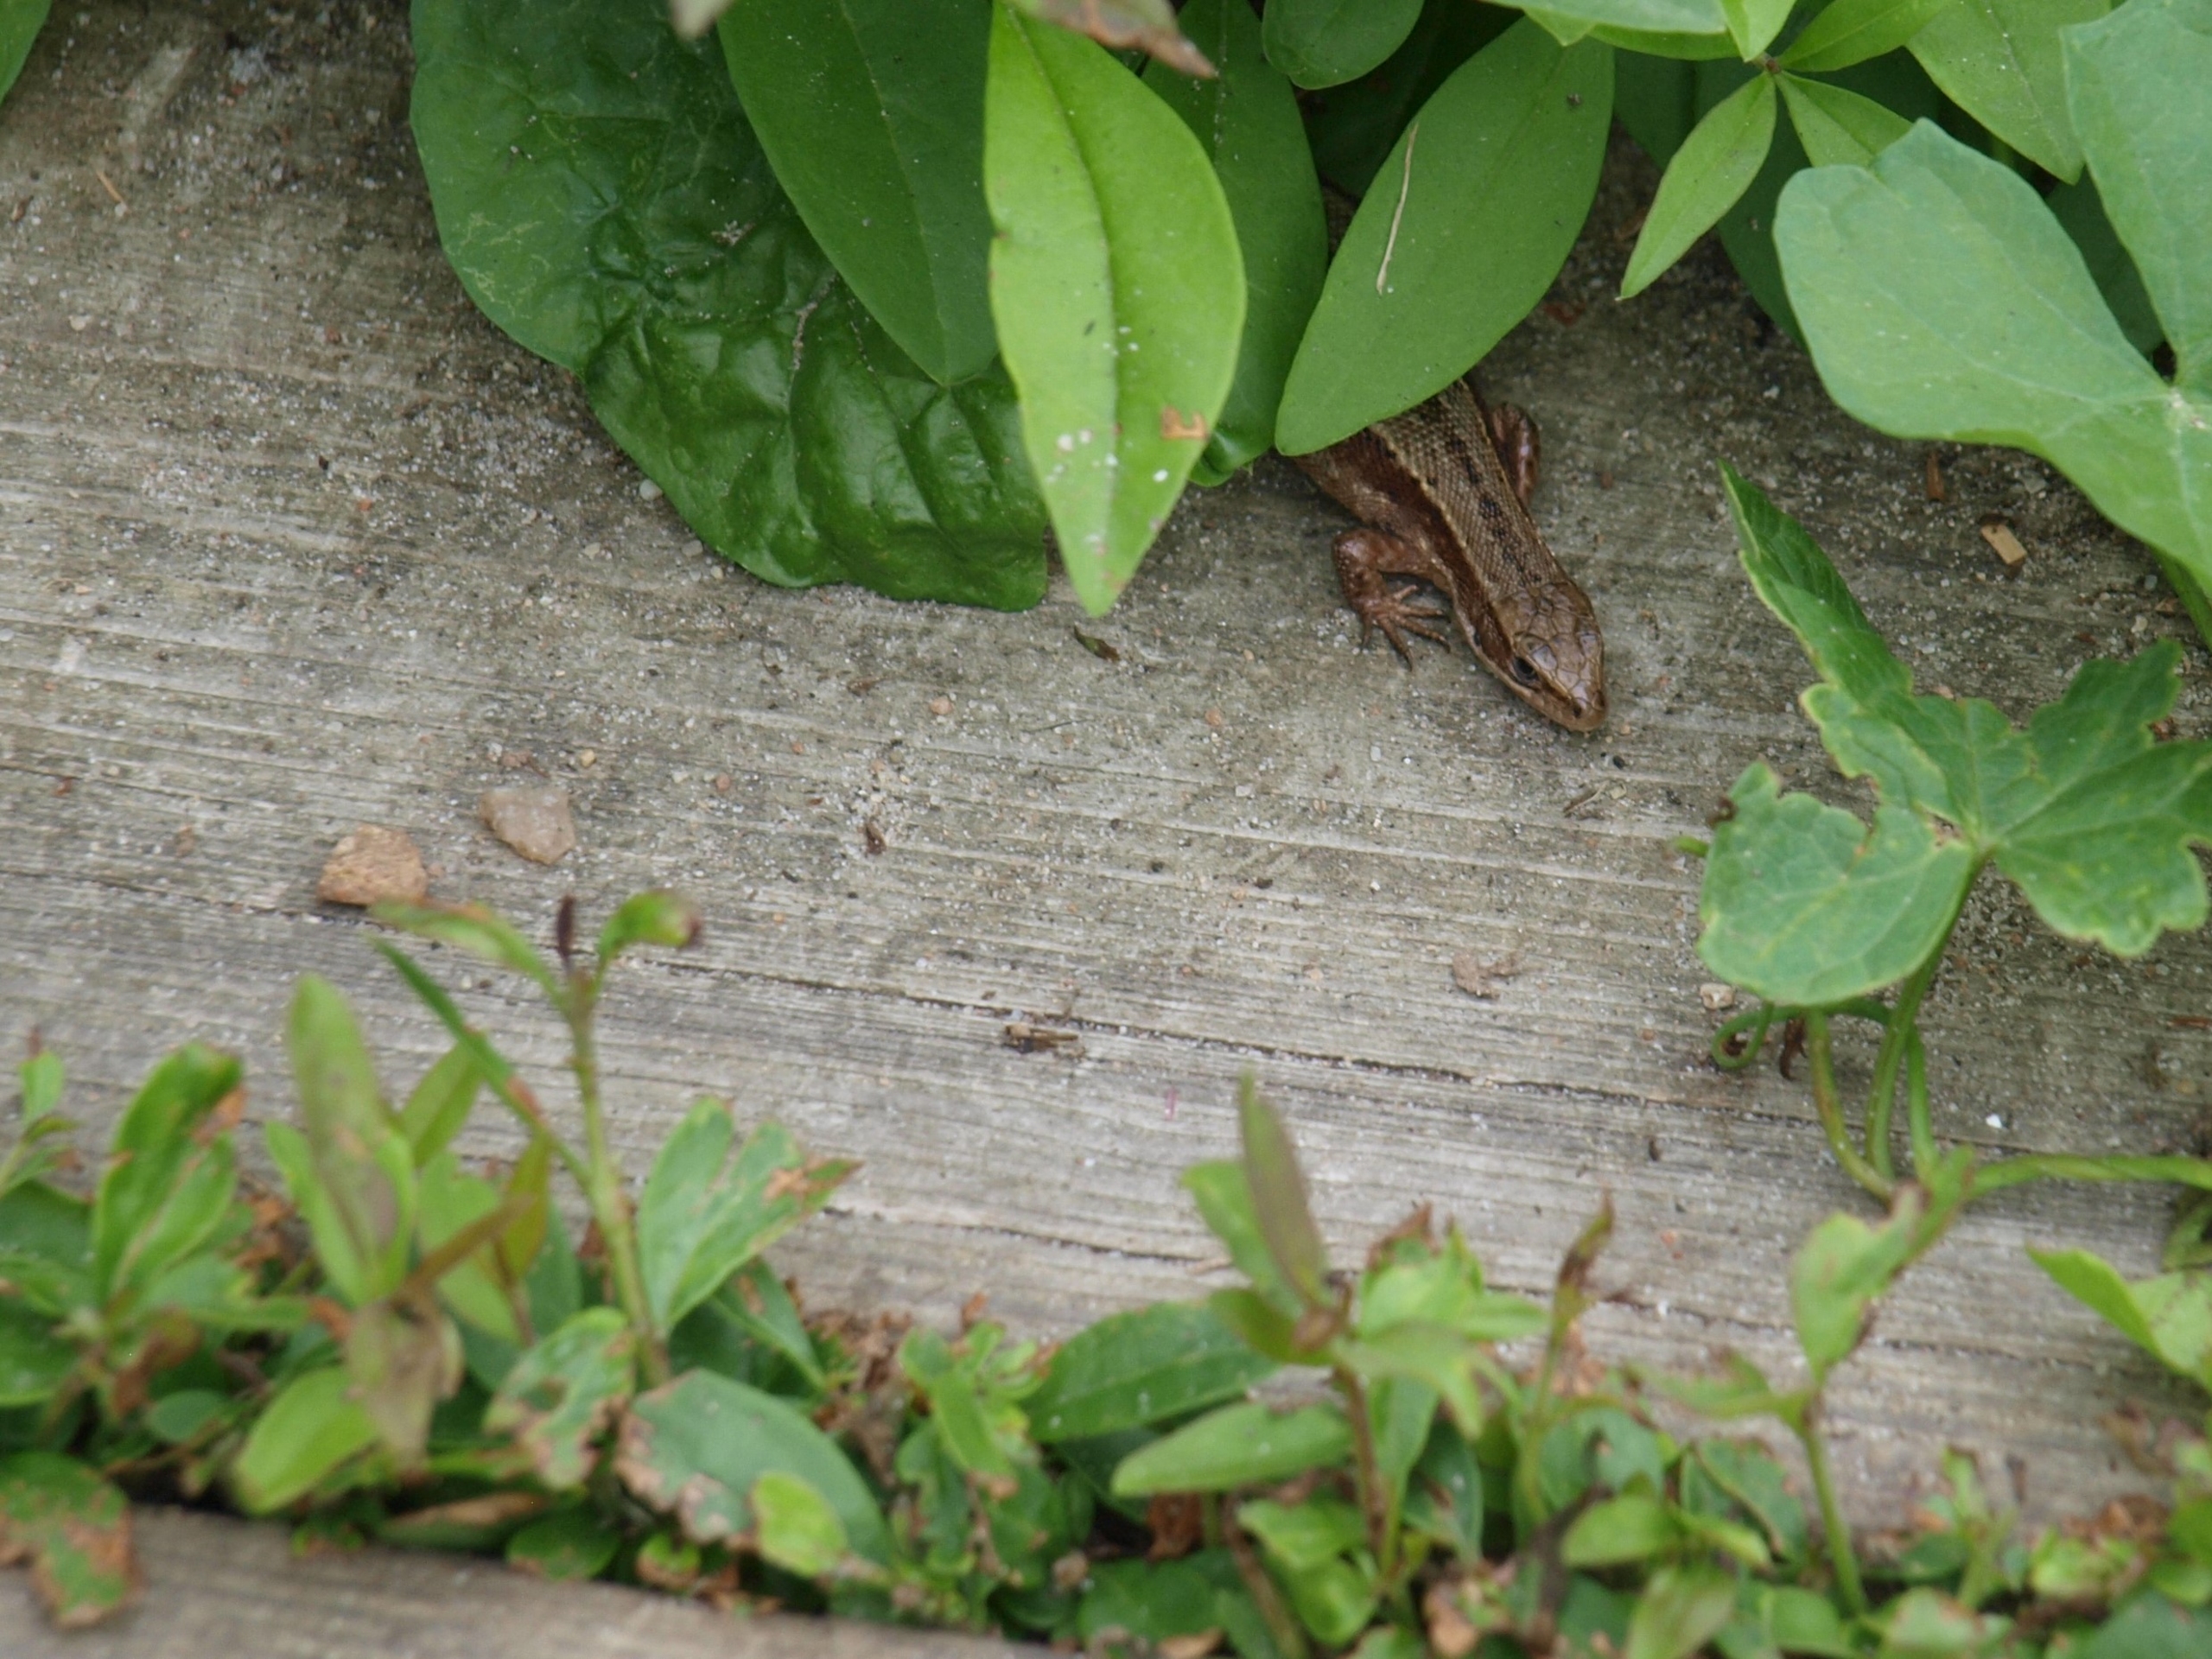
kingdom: Animalia
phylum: Chordata
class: Squamata
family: Lacertidae
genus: Zootoca
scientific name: Zootoca vivipara
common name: Skovfirben
